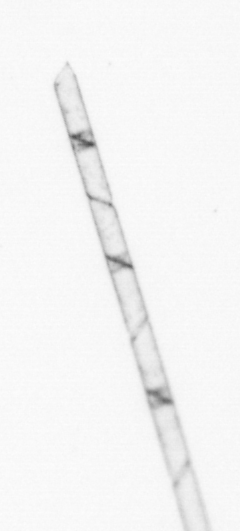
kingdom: Chromista
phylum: Ochrophyta
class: Bacillariophyceae
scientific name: Bacillariophyceae
